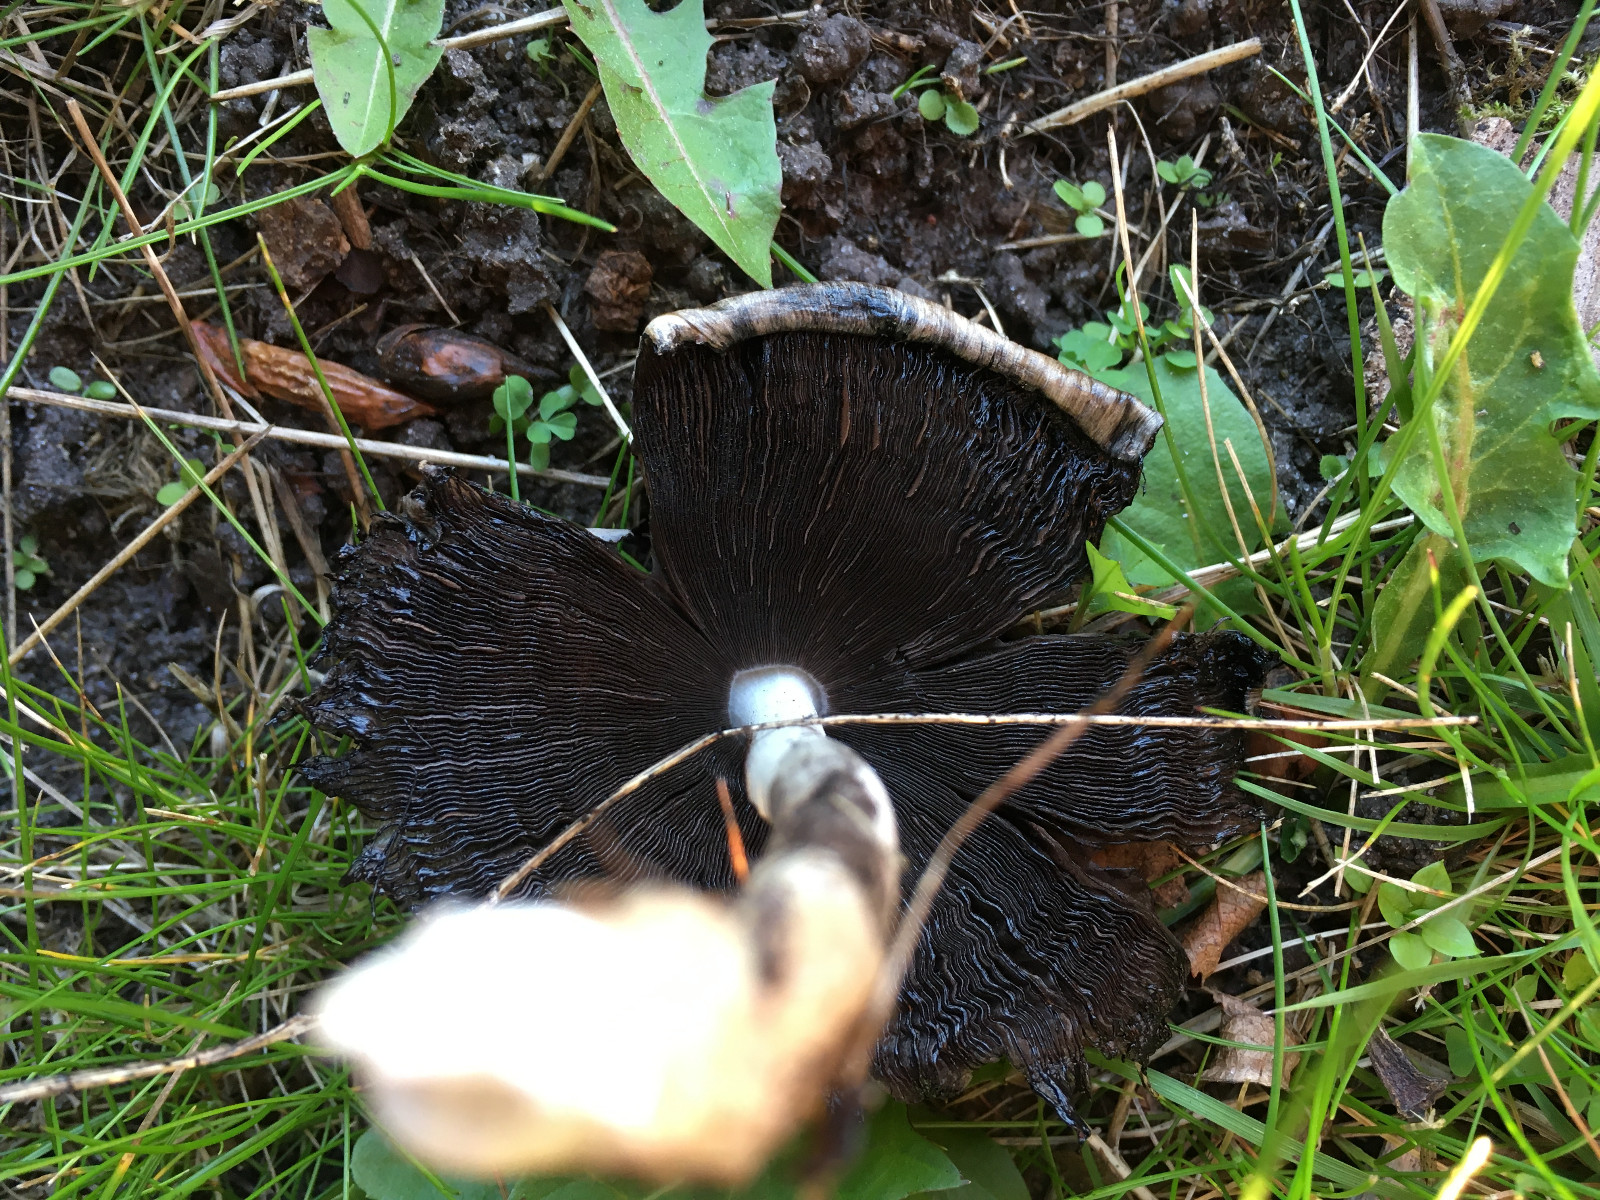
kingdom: Fungi
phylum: Basidiomycota
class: Agaricomycetes
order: Agaricales
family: Psathyrellaceae
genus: Coprinopsis
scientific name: Coprinopsis atramentaria
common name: almindelig blækhat
